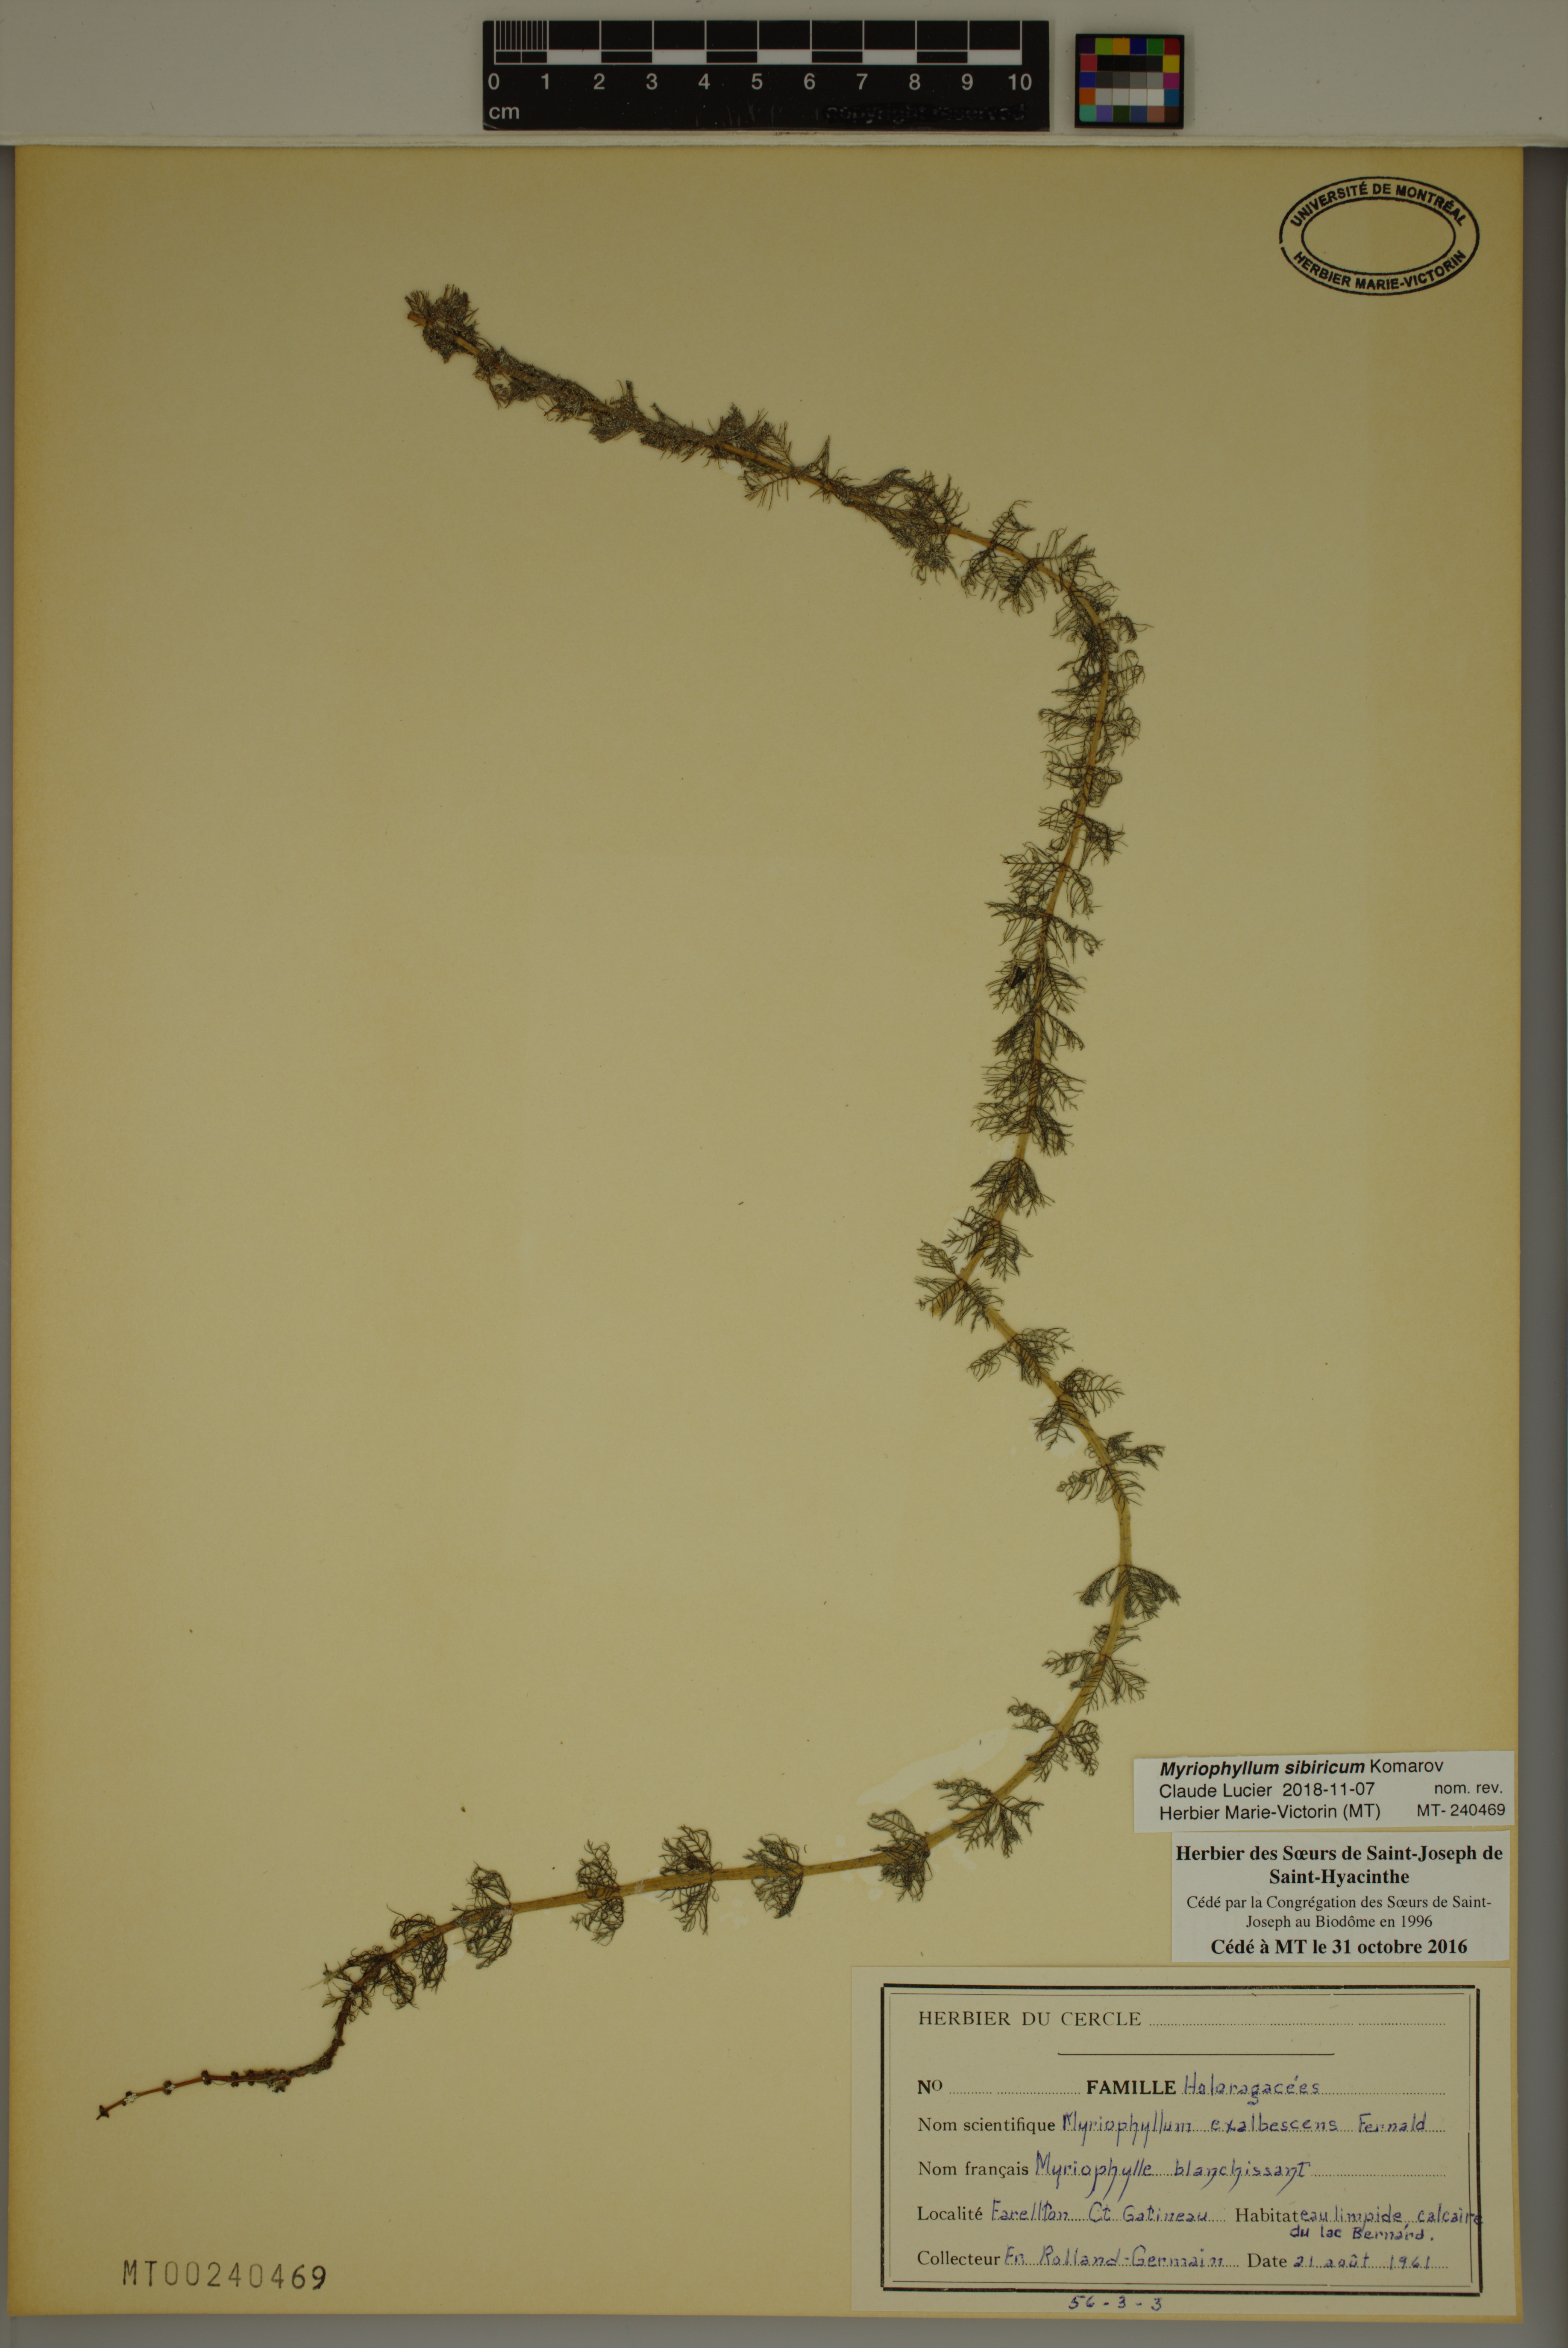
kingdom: Plantae
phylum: Tracheophyta
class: Magnoliopsida
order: Saxifragales
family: Haloragaceae
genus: Myriophyllum
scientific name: Myriophyllum sibiricum
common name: Siberian water-milfoil
